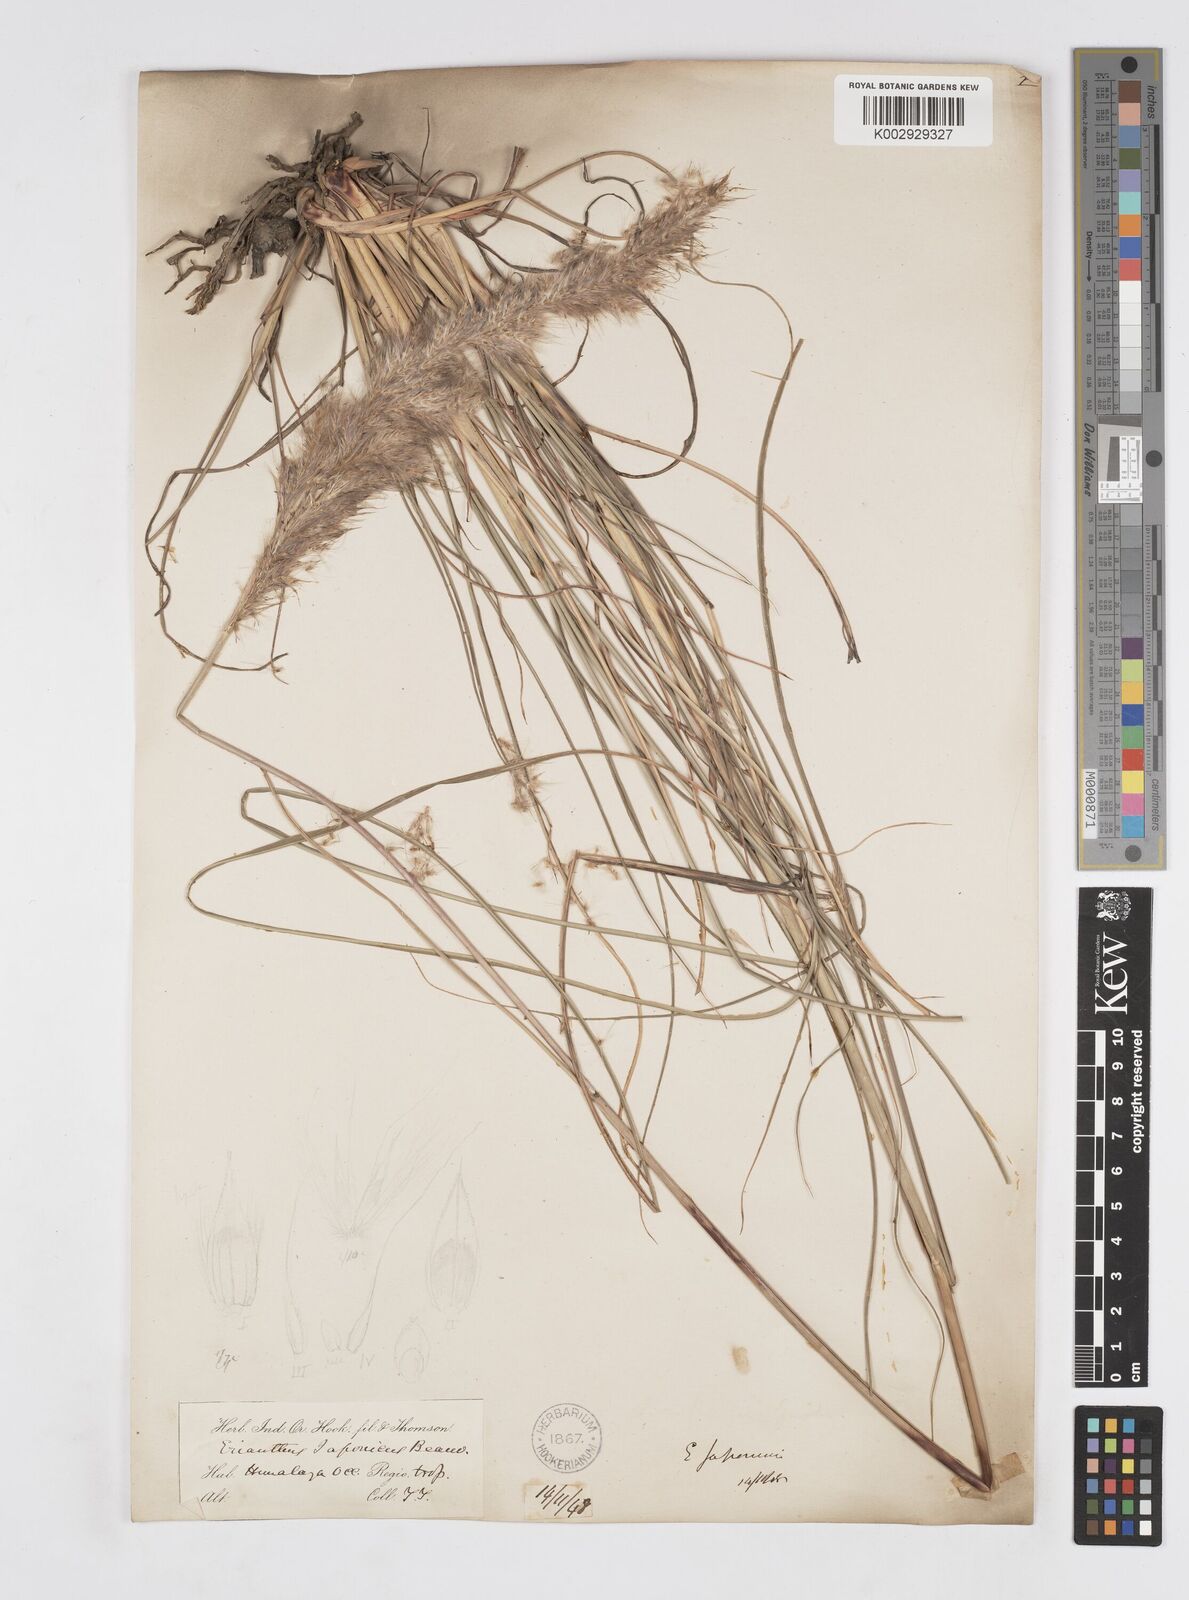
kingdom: Plantae
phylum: Tracheophyta
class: Liliopsida
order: Poales
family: Poaceae
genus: Tripidium
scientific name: Tripidium rufipilum
